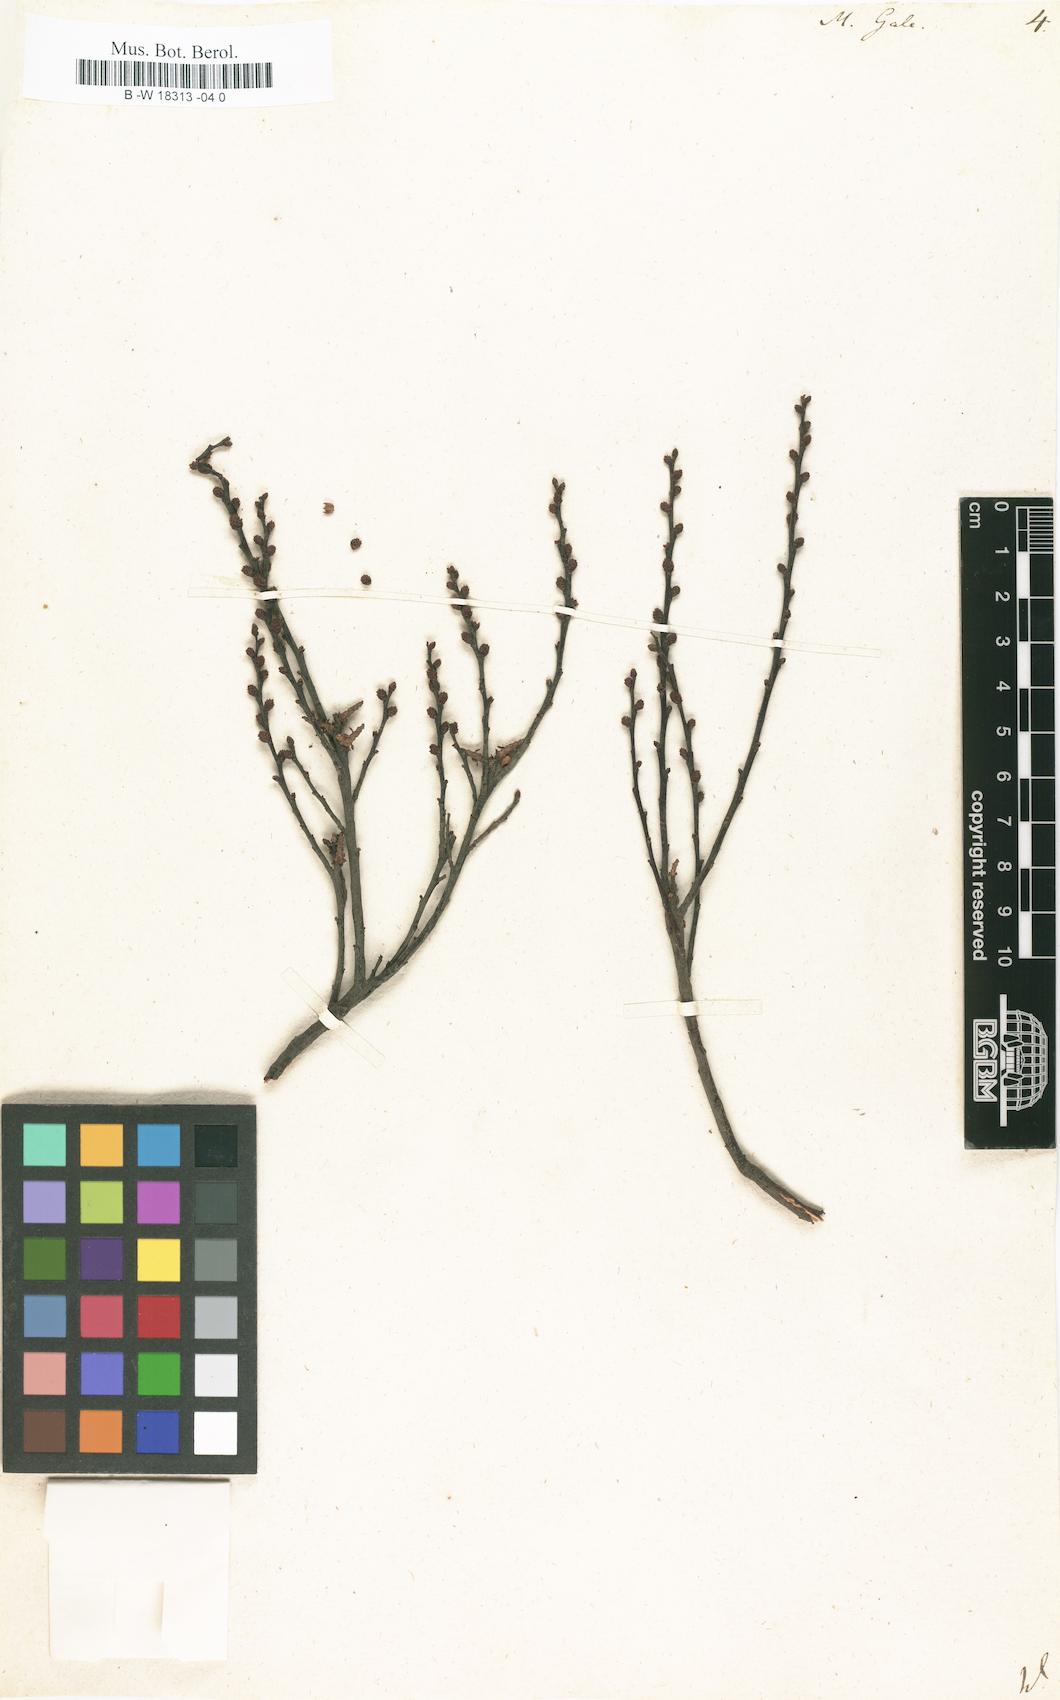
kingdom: Plantae
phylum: Tracheophyta
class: Magnoliopsida
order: Fagales
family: Myricaceae
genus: Myrica
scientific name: Myrica gale
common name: Sweet gale
